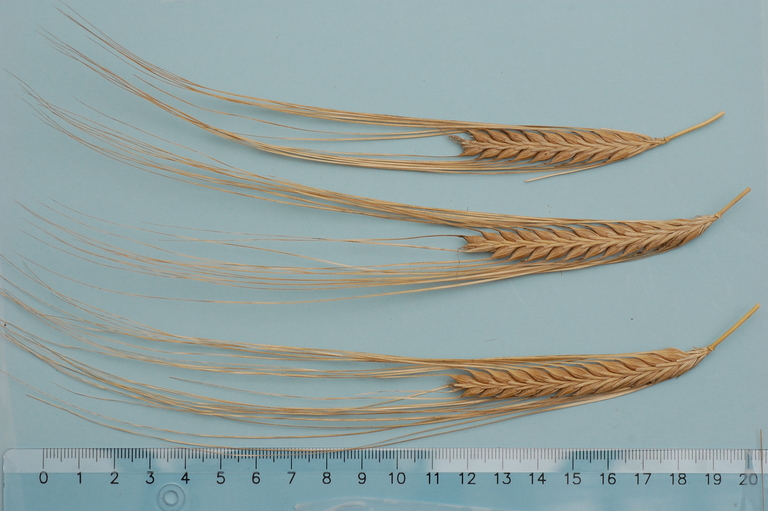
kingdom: Plantae
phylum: Tracheophyta
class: Liliopsida
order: Poales
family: Poaceae
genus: Hordeum
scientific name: Hordeum vulgare
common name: Common barley
